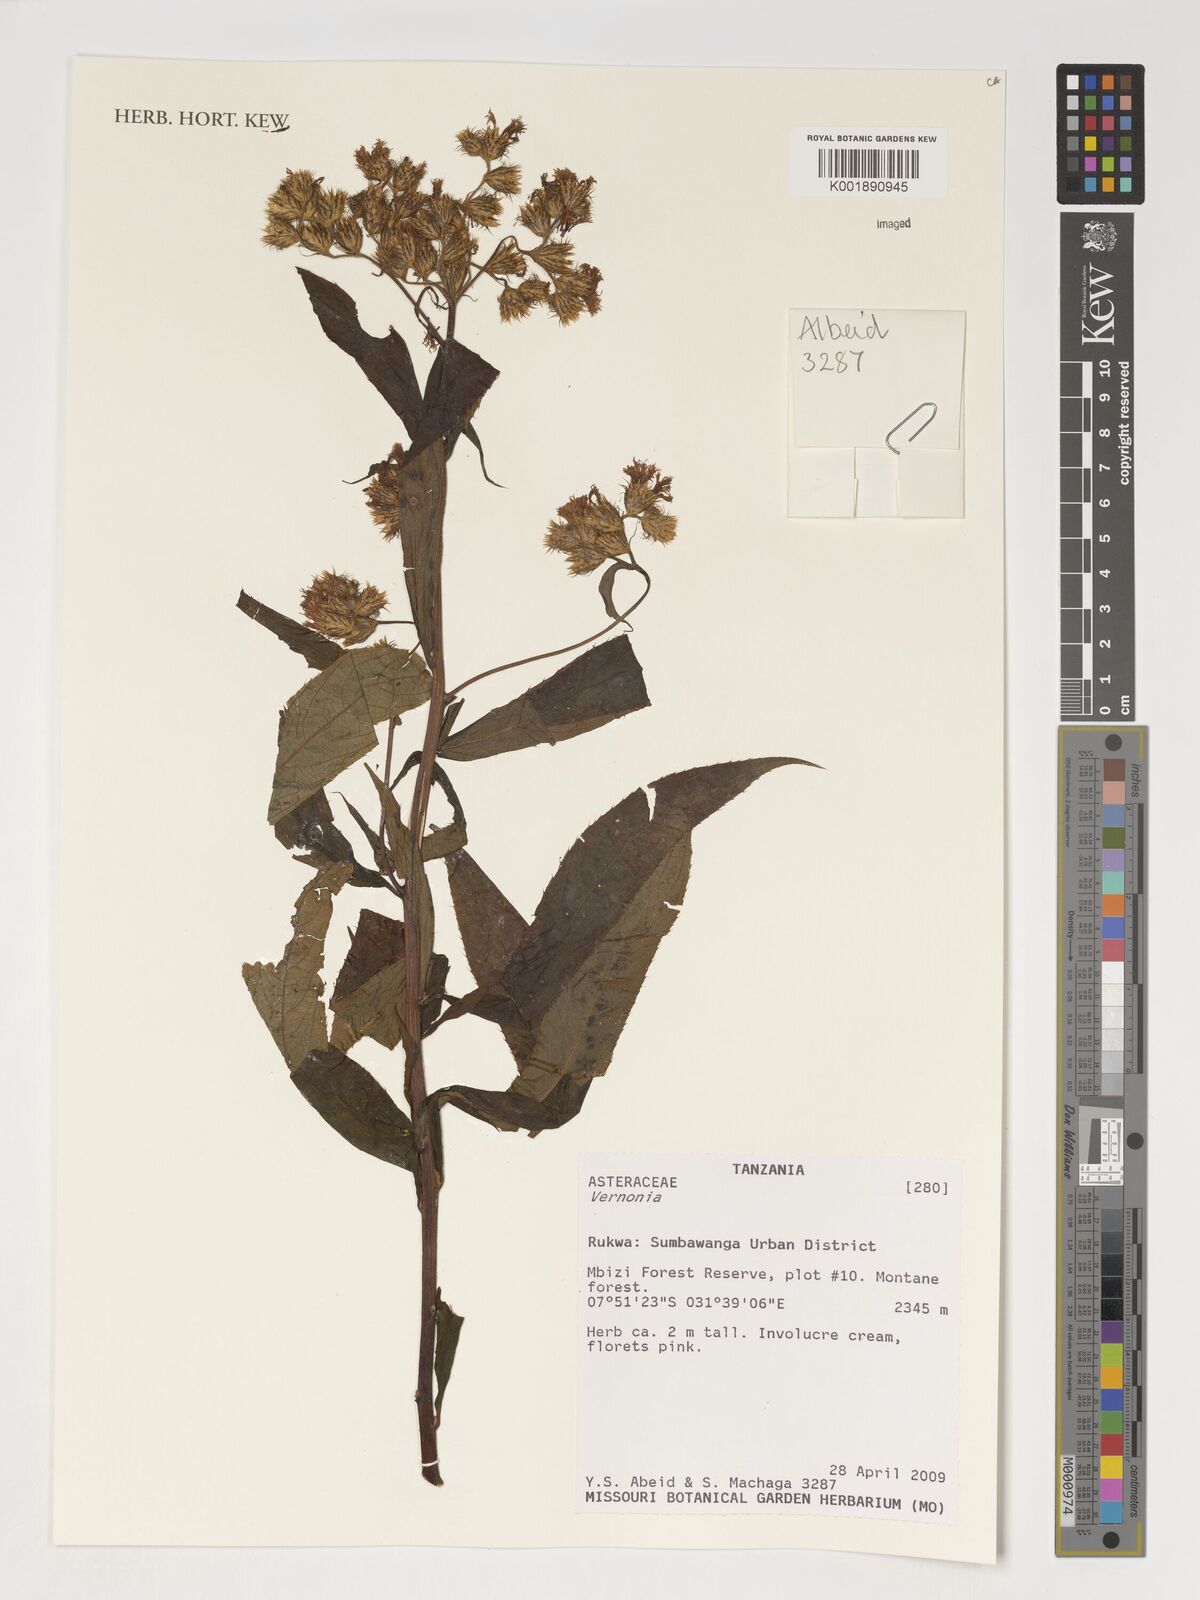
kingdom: Plantae
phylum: Tracheophyta
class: Magnoliopsida
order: Asterales
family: Asteraceae
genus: Vernonia
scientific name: Vernonia
